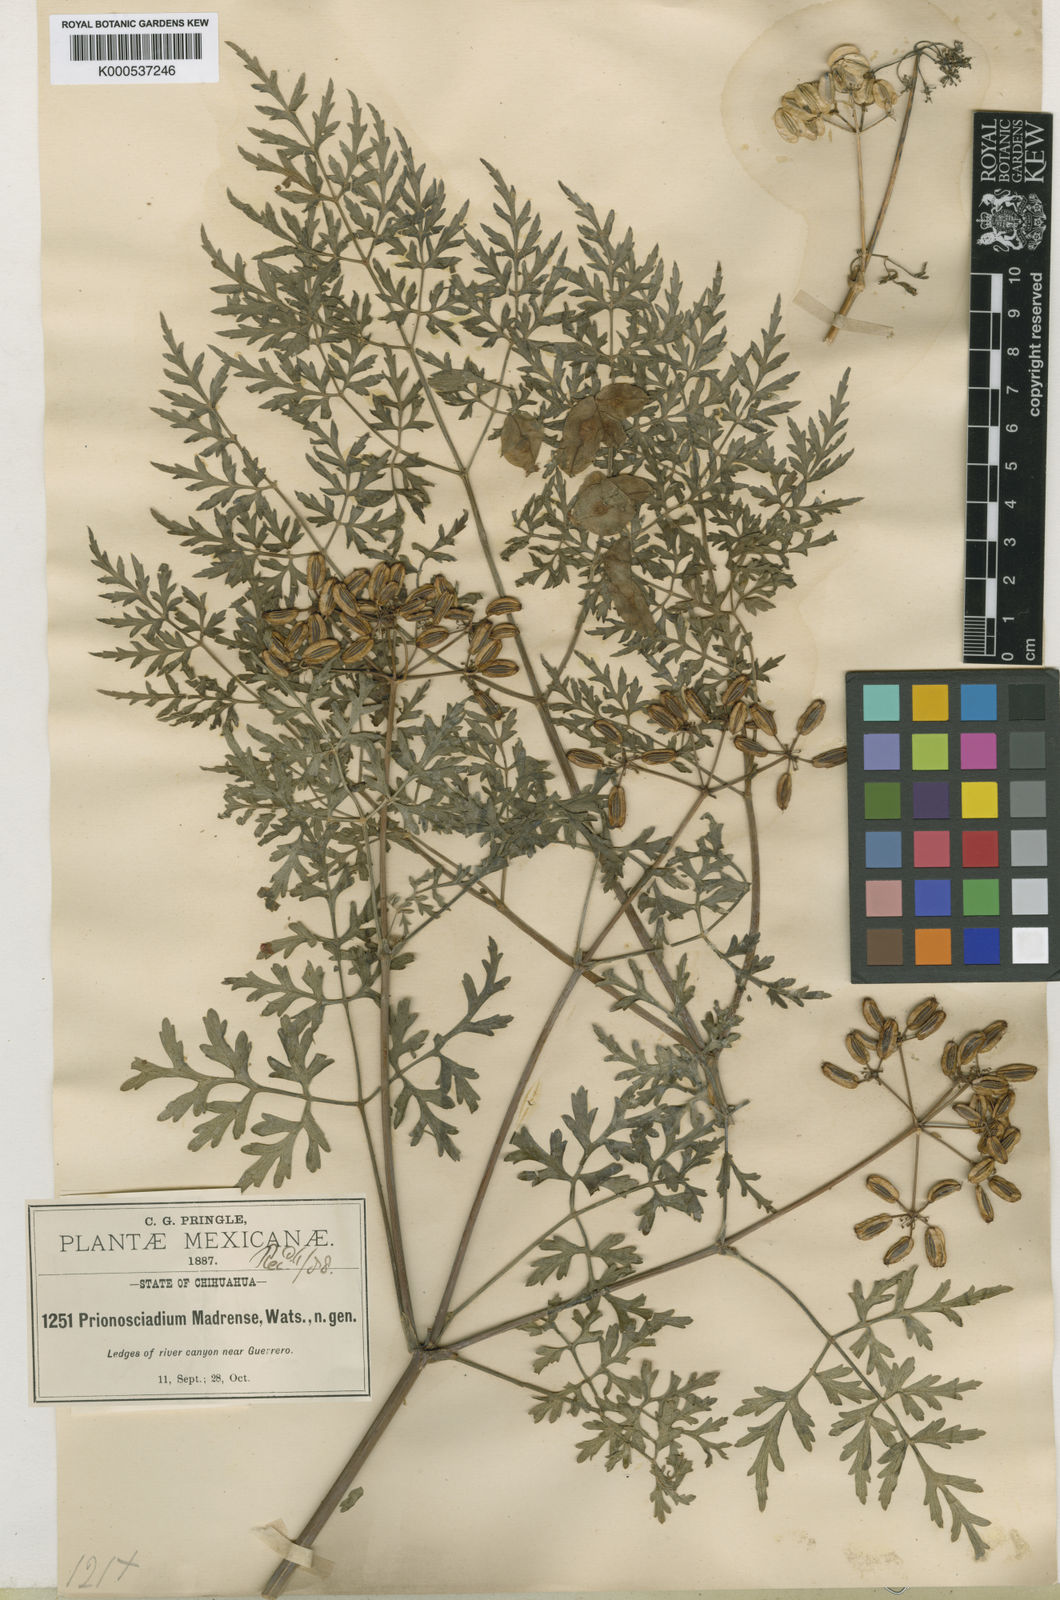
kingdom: Plantae
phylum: Tracheophyta
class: Magnoliopsida
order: Apiales
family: Apiaceae
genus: Prionosciadium
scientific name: Prionosciadium madrense
